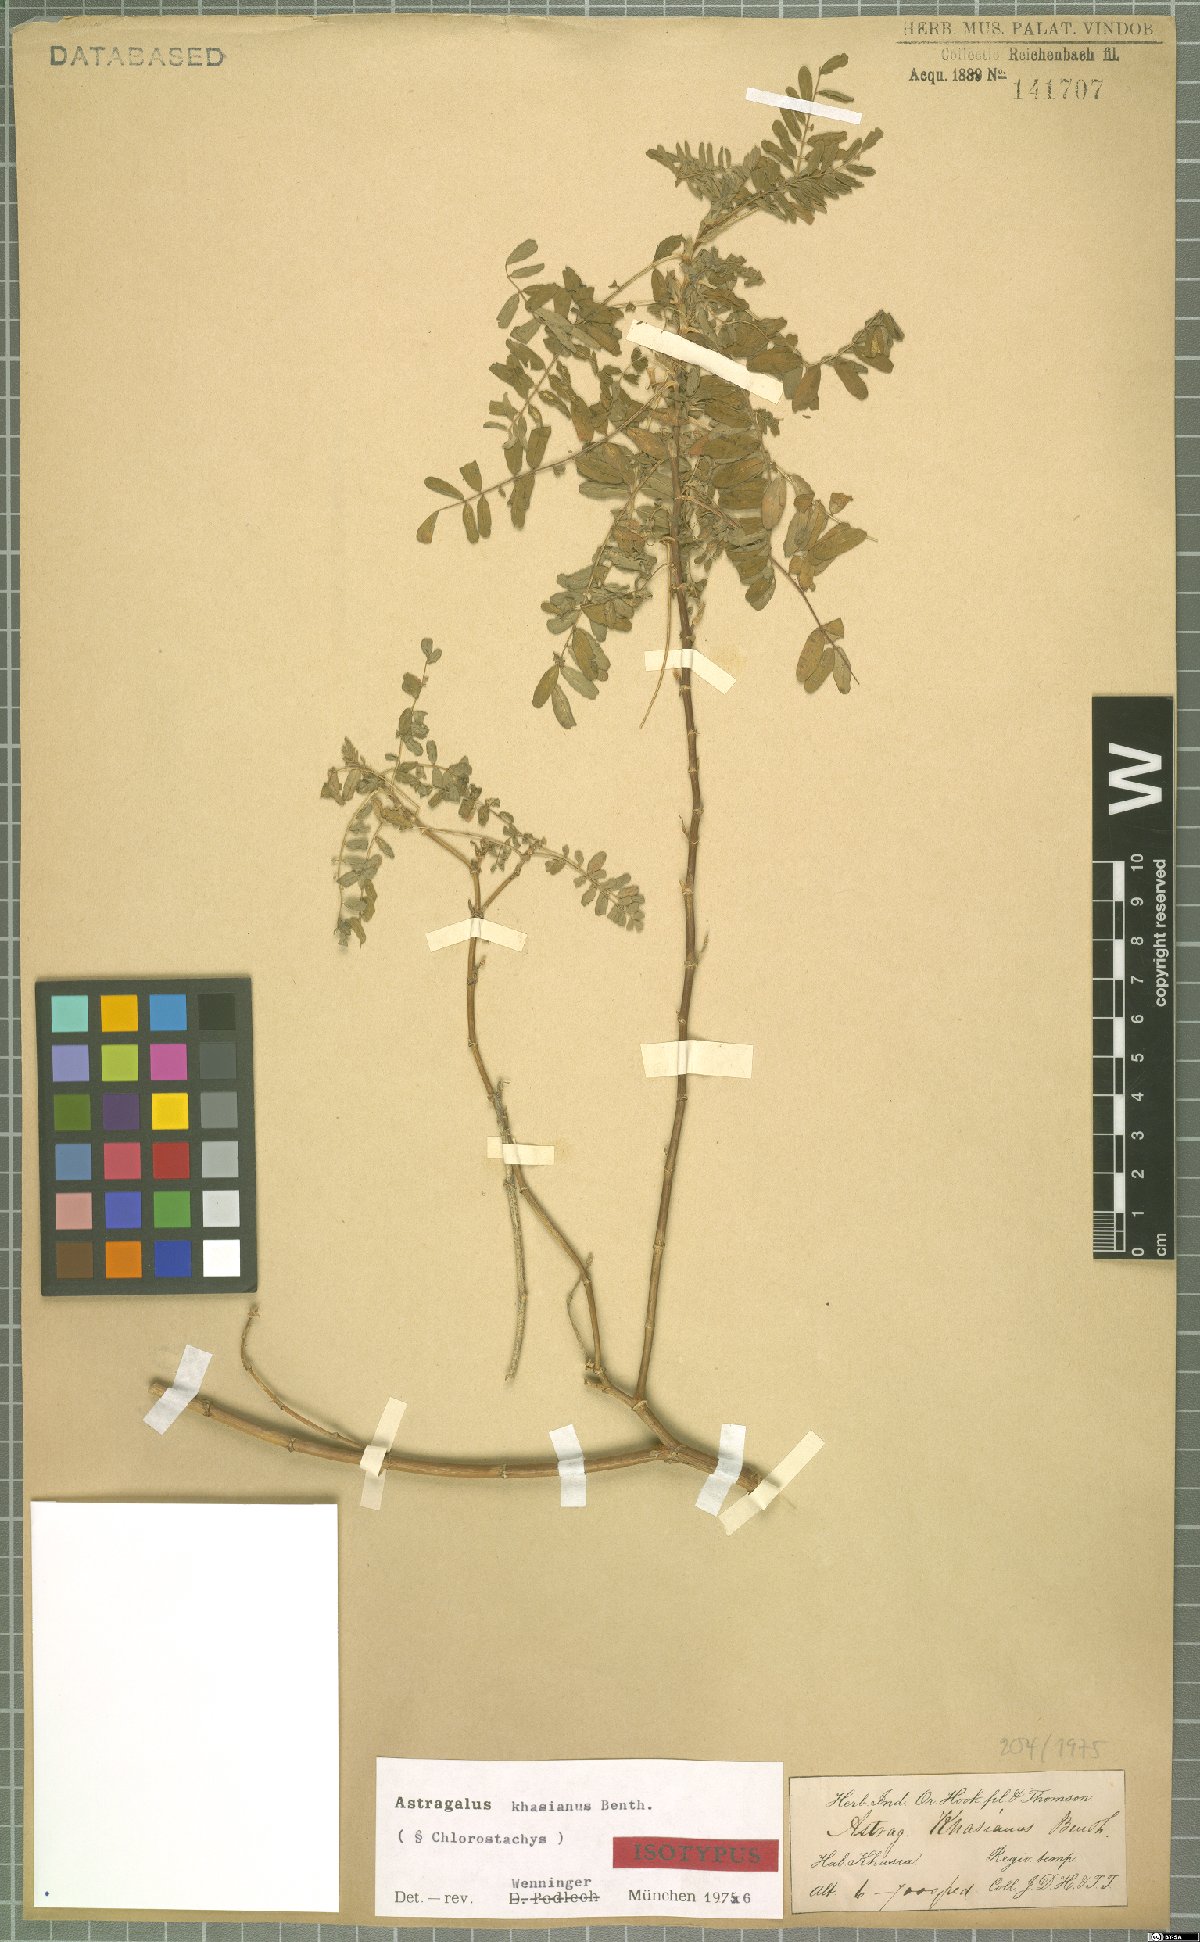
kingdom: Plantae
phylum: Tracheophyta
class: Magnoliopsida
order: Fabales
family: Fabaceae
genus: Astragalus
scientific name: Astragalus khasianus
